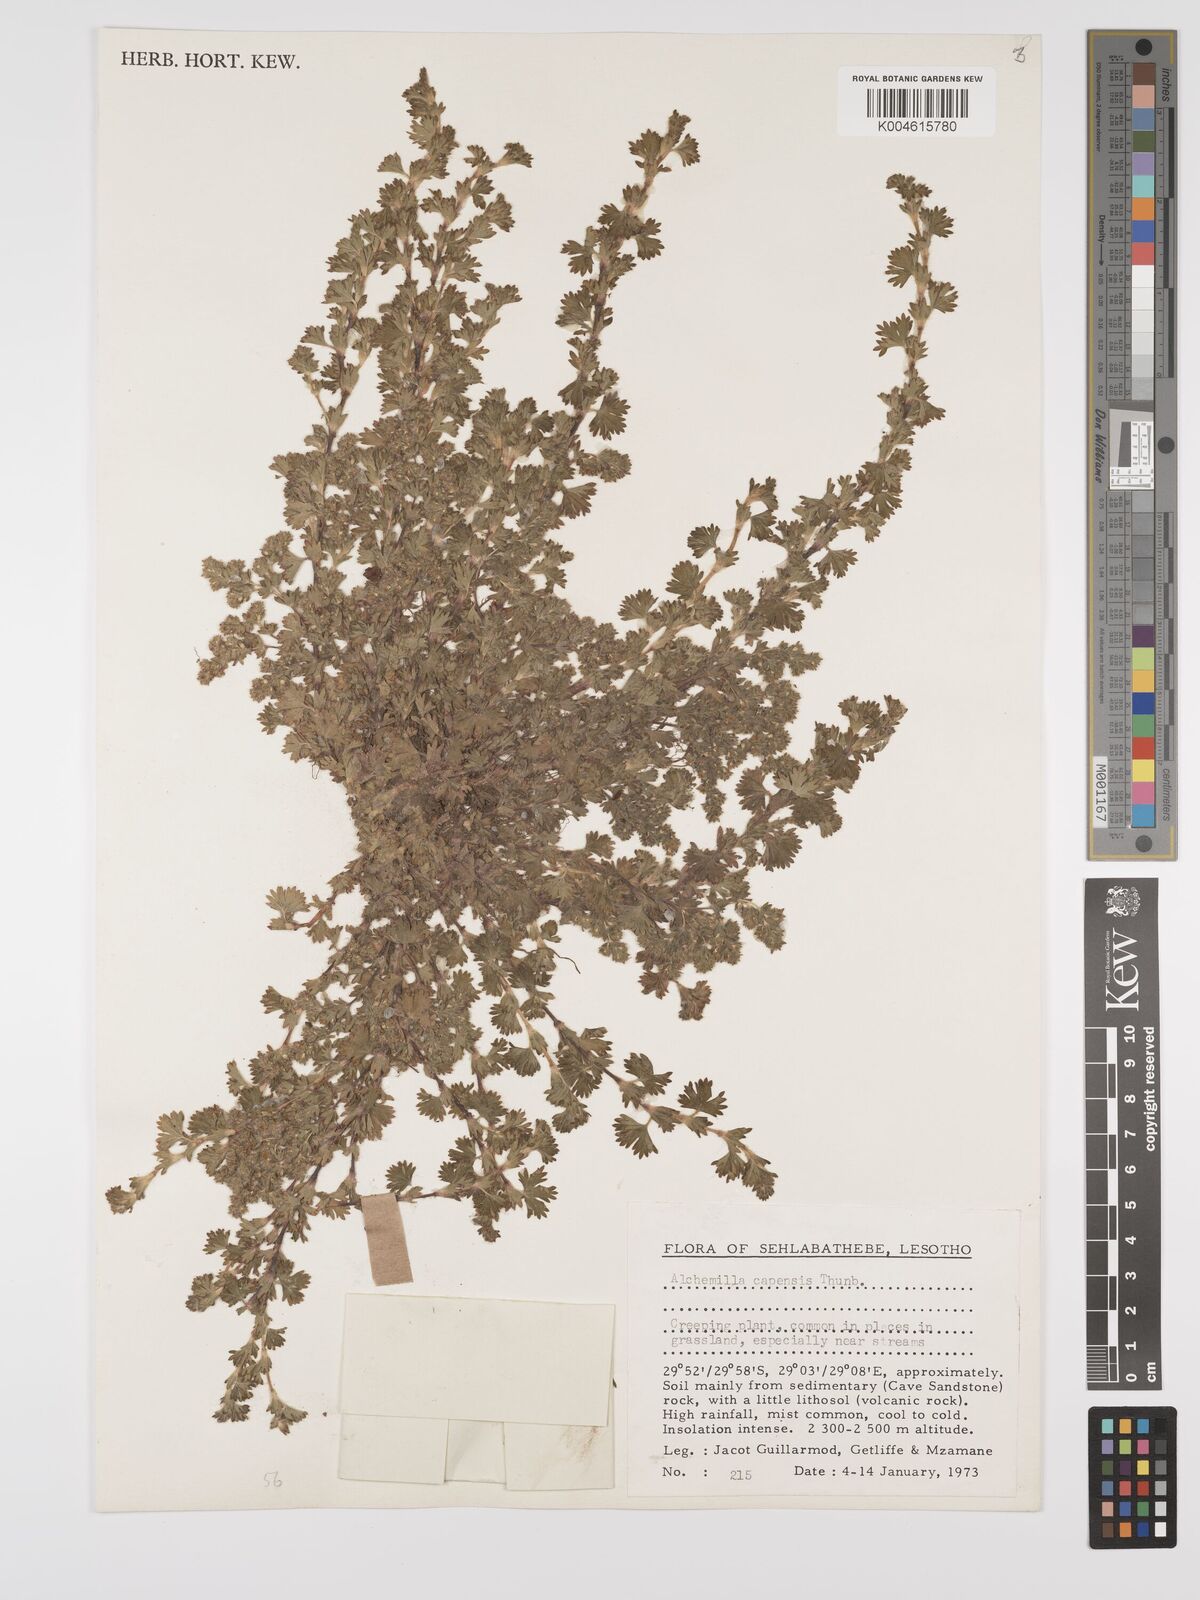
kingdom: Plantae
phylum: Tracheophyta
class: Magnoliopsida
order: Rosales
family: Rosaceae
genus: Alchemilla
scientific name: Alchemilla woodii
